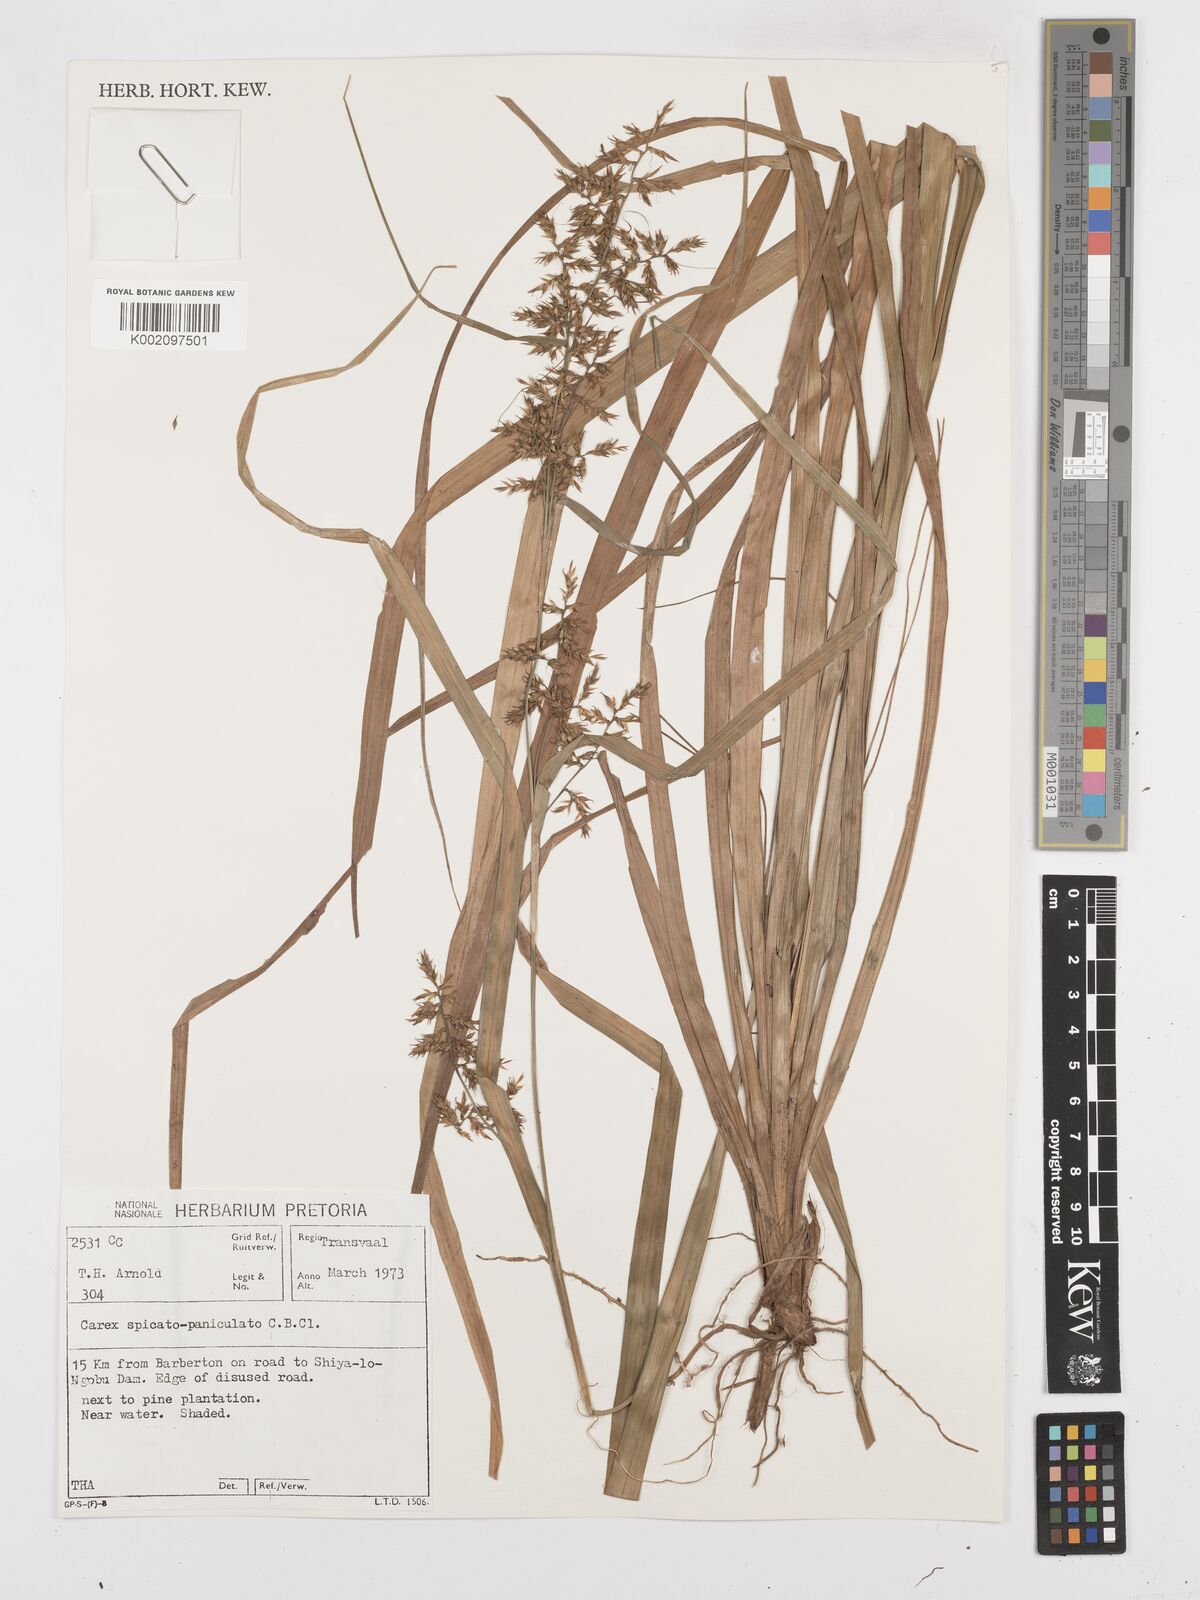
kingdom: Plantae
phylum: Tracheophyta
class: Liliopsida
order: Poales
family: Cyperaceae
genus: Carex
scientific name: Carex spicatopaniculata
